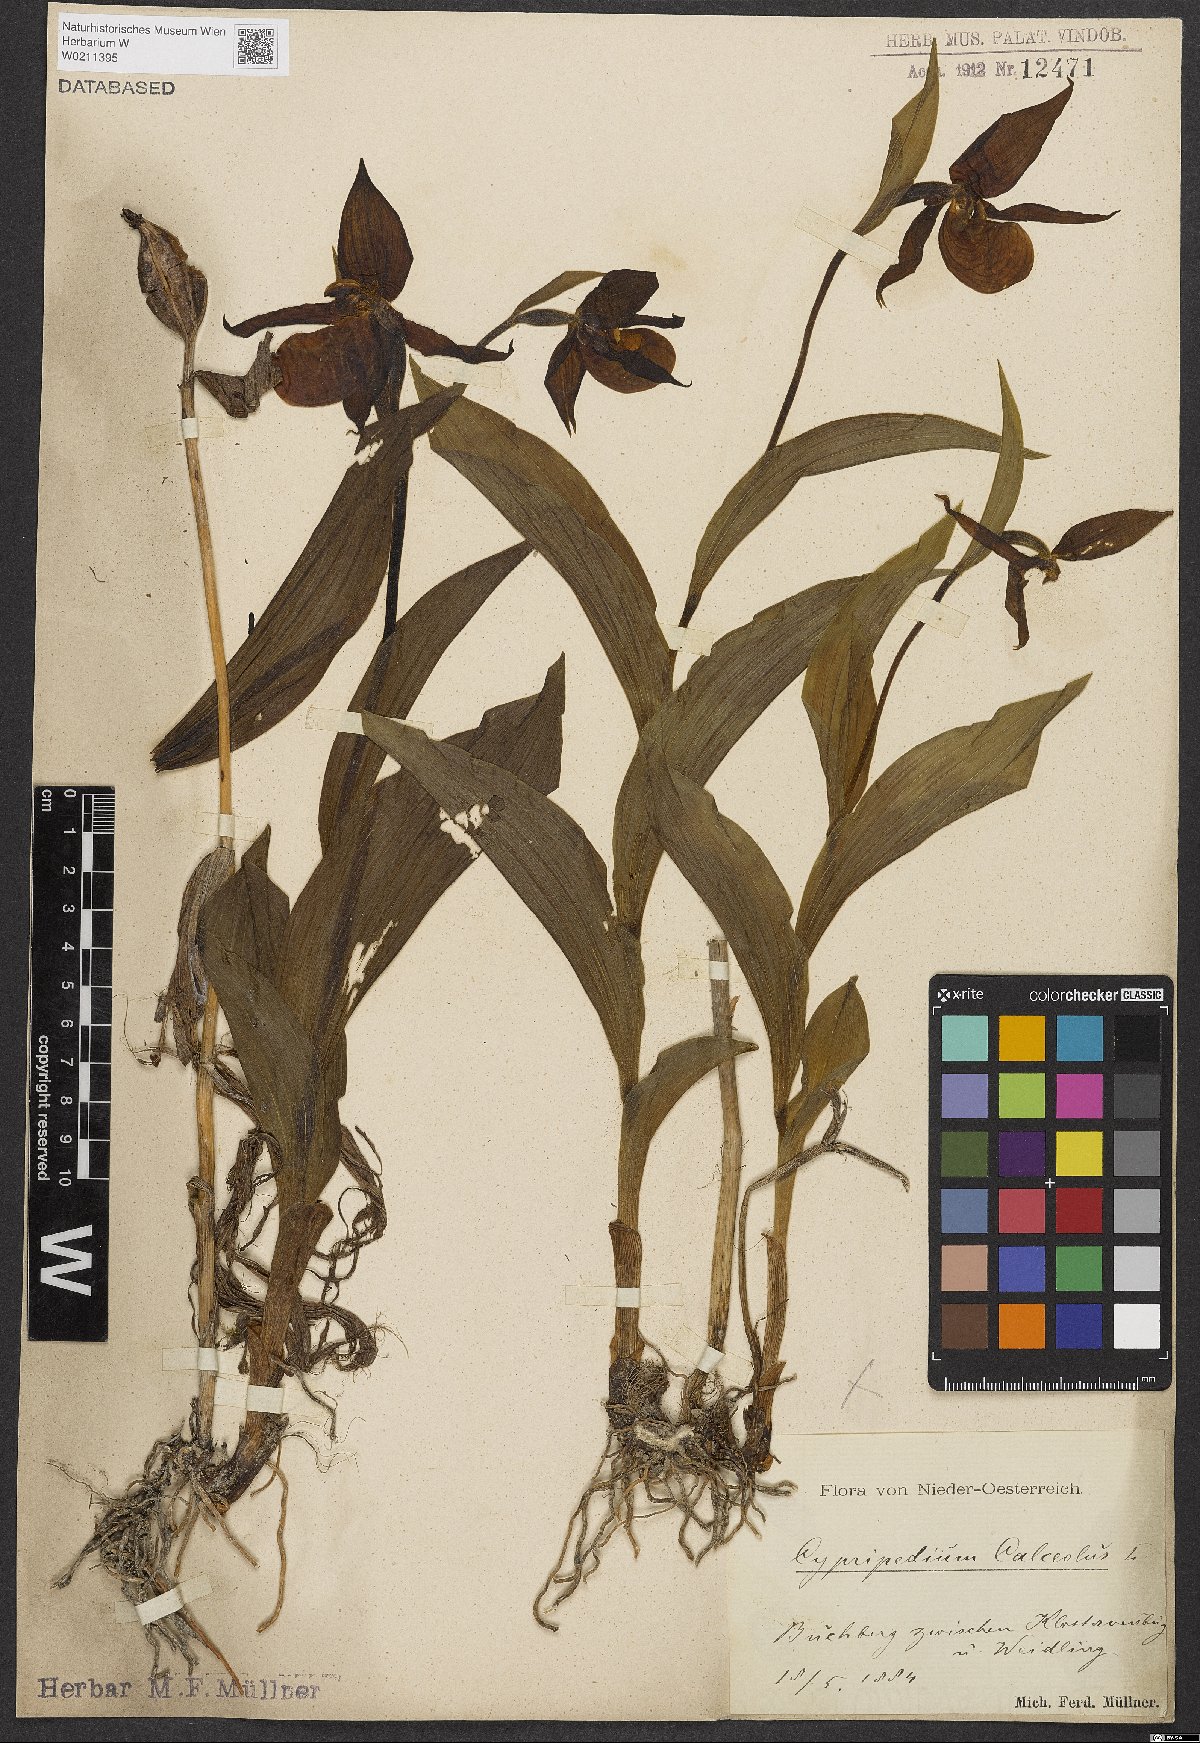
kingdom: Plantae
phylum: Tracheophyta
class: Liliopsida
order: Asparagales
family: Orchidaceae
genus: Cypripedium
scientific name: Cypripedium calceolus
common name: Lady's-slipper
